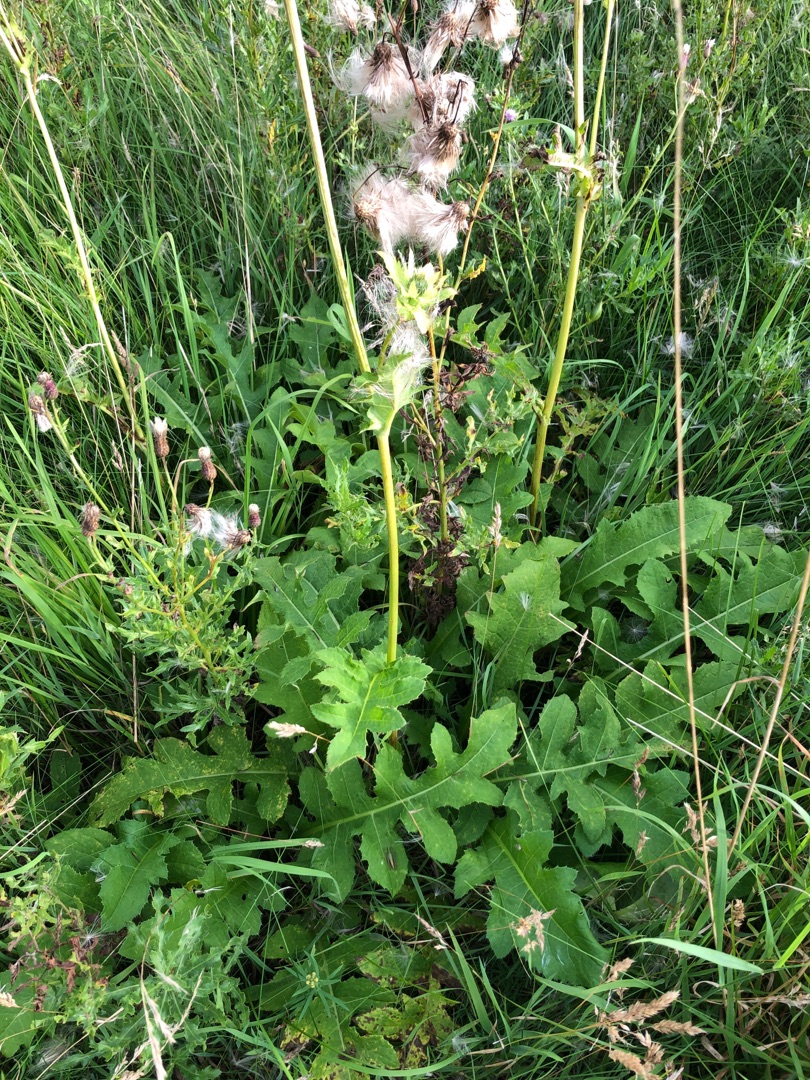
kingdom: Plantae
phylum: Tracheophyta
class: Magnoliopsida
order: Asterales
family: Asteraceae
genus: Cirsium
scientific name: Cirsium oleraceum
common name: Kål-tidsel
